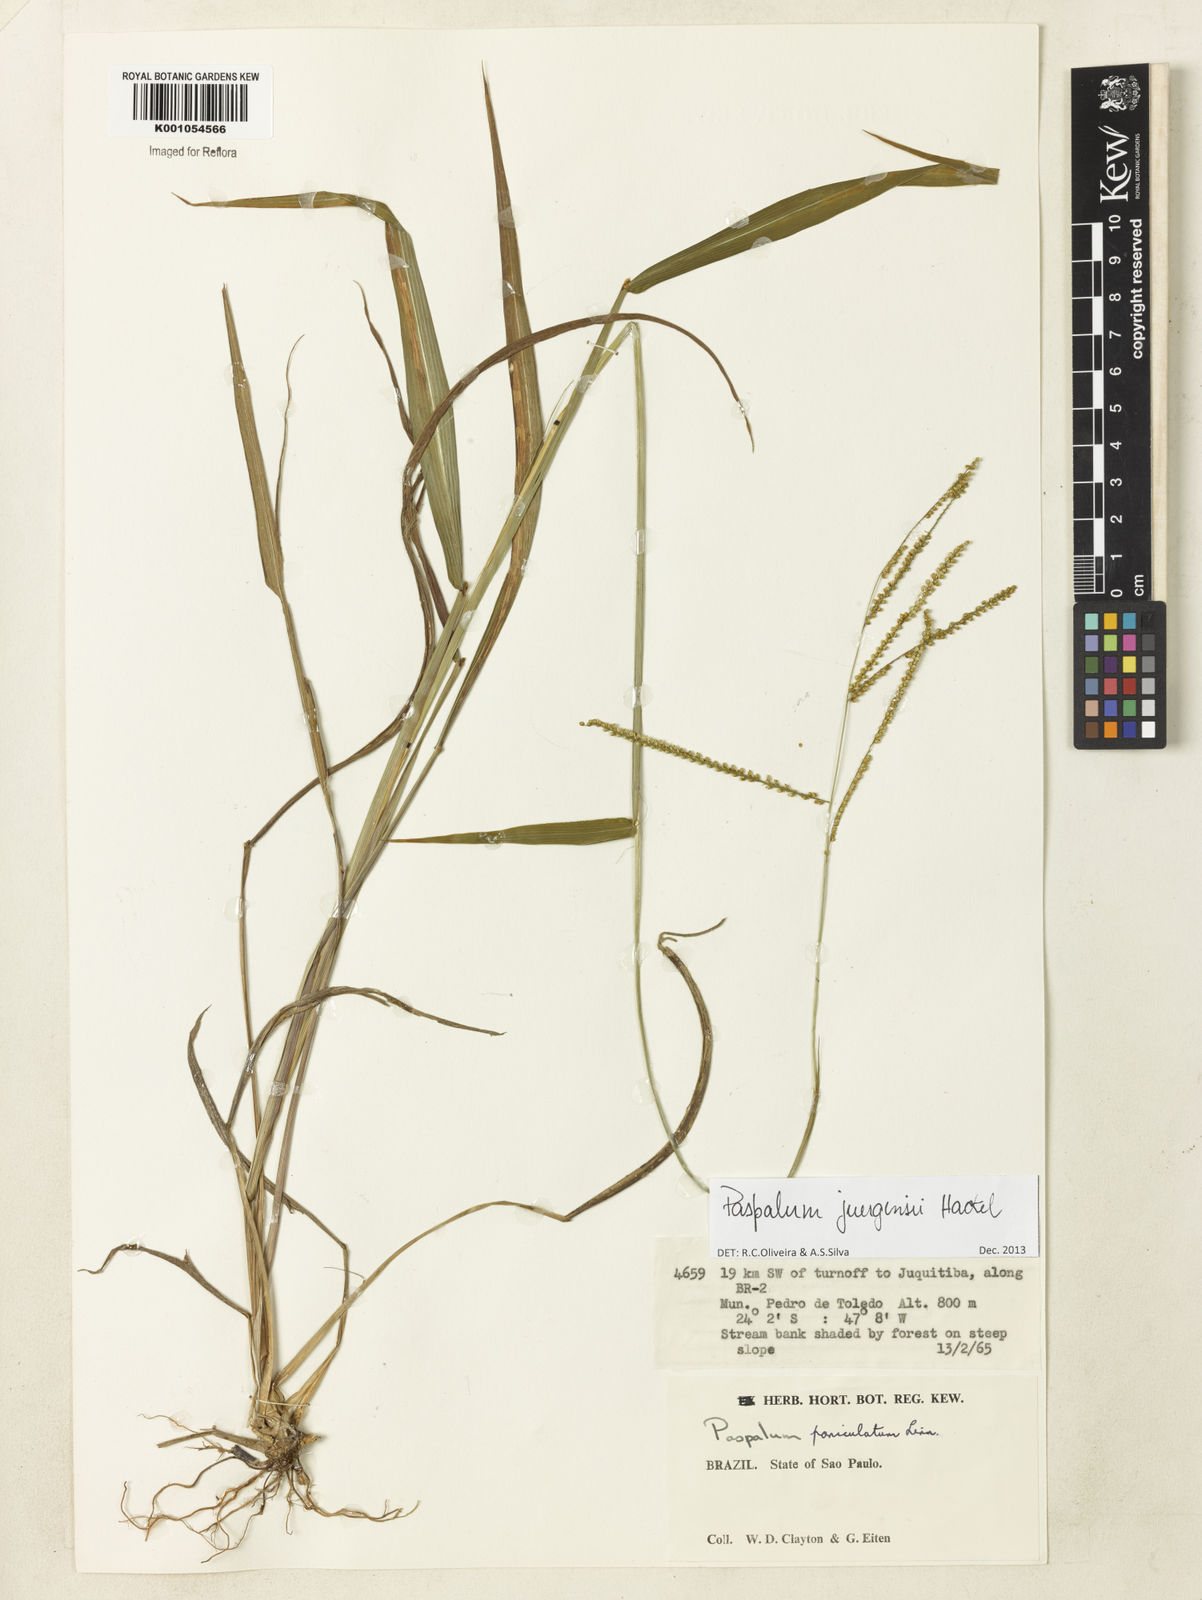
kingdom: Plantae
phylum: Tracheophyta
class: Liliopsida
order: Poales
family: Poaceae
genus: Paspalum
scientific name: Paspalum juergensii
